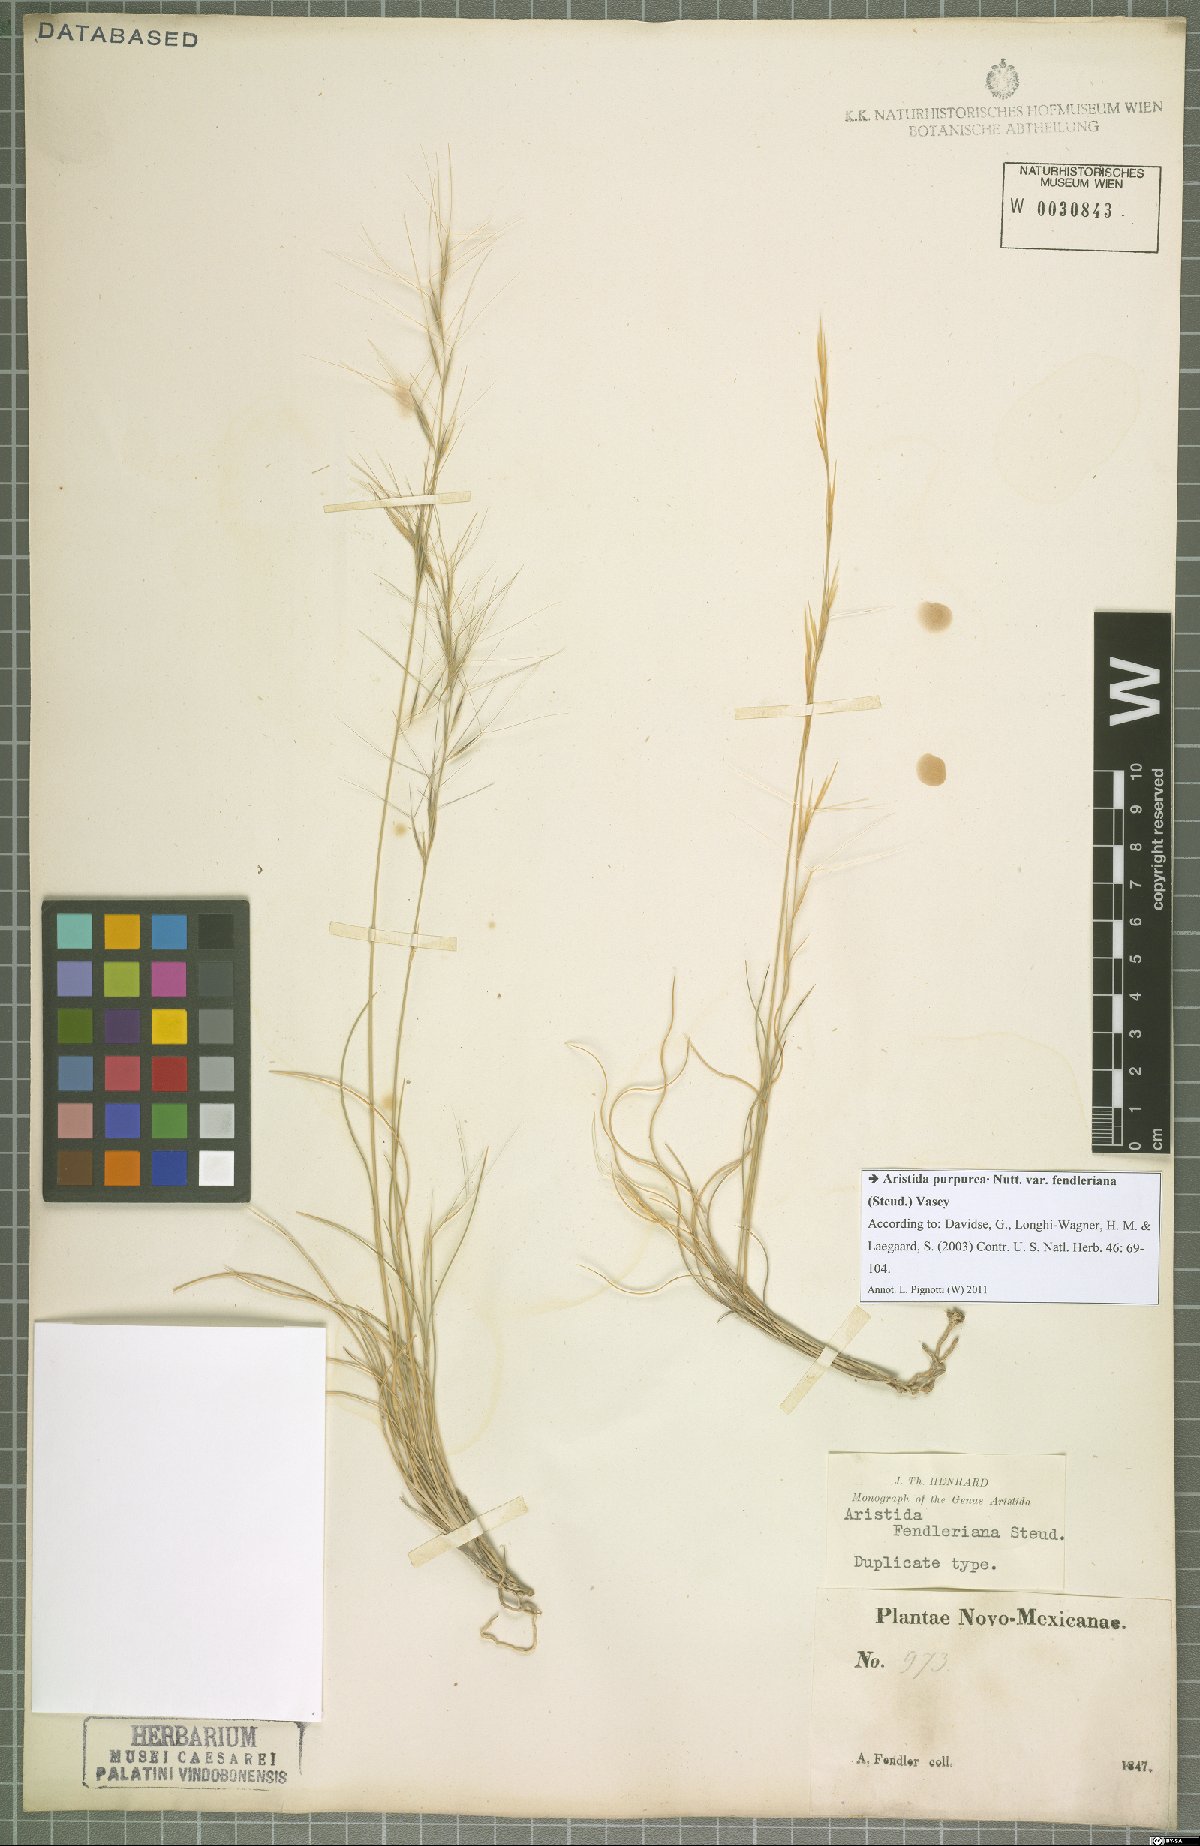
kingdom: Plantae
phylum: Tracheophyta
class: Liliopsida
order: Poales
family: Poaceae
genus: Aristida
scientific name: Aristida fendleriana
